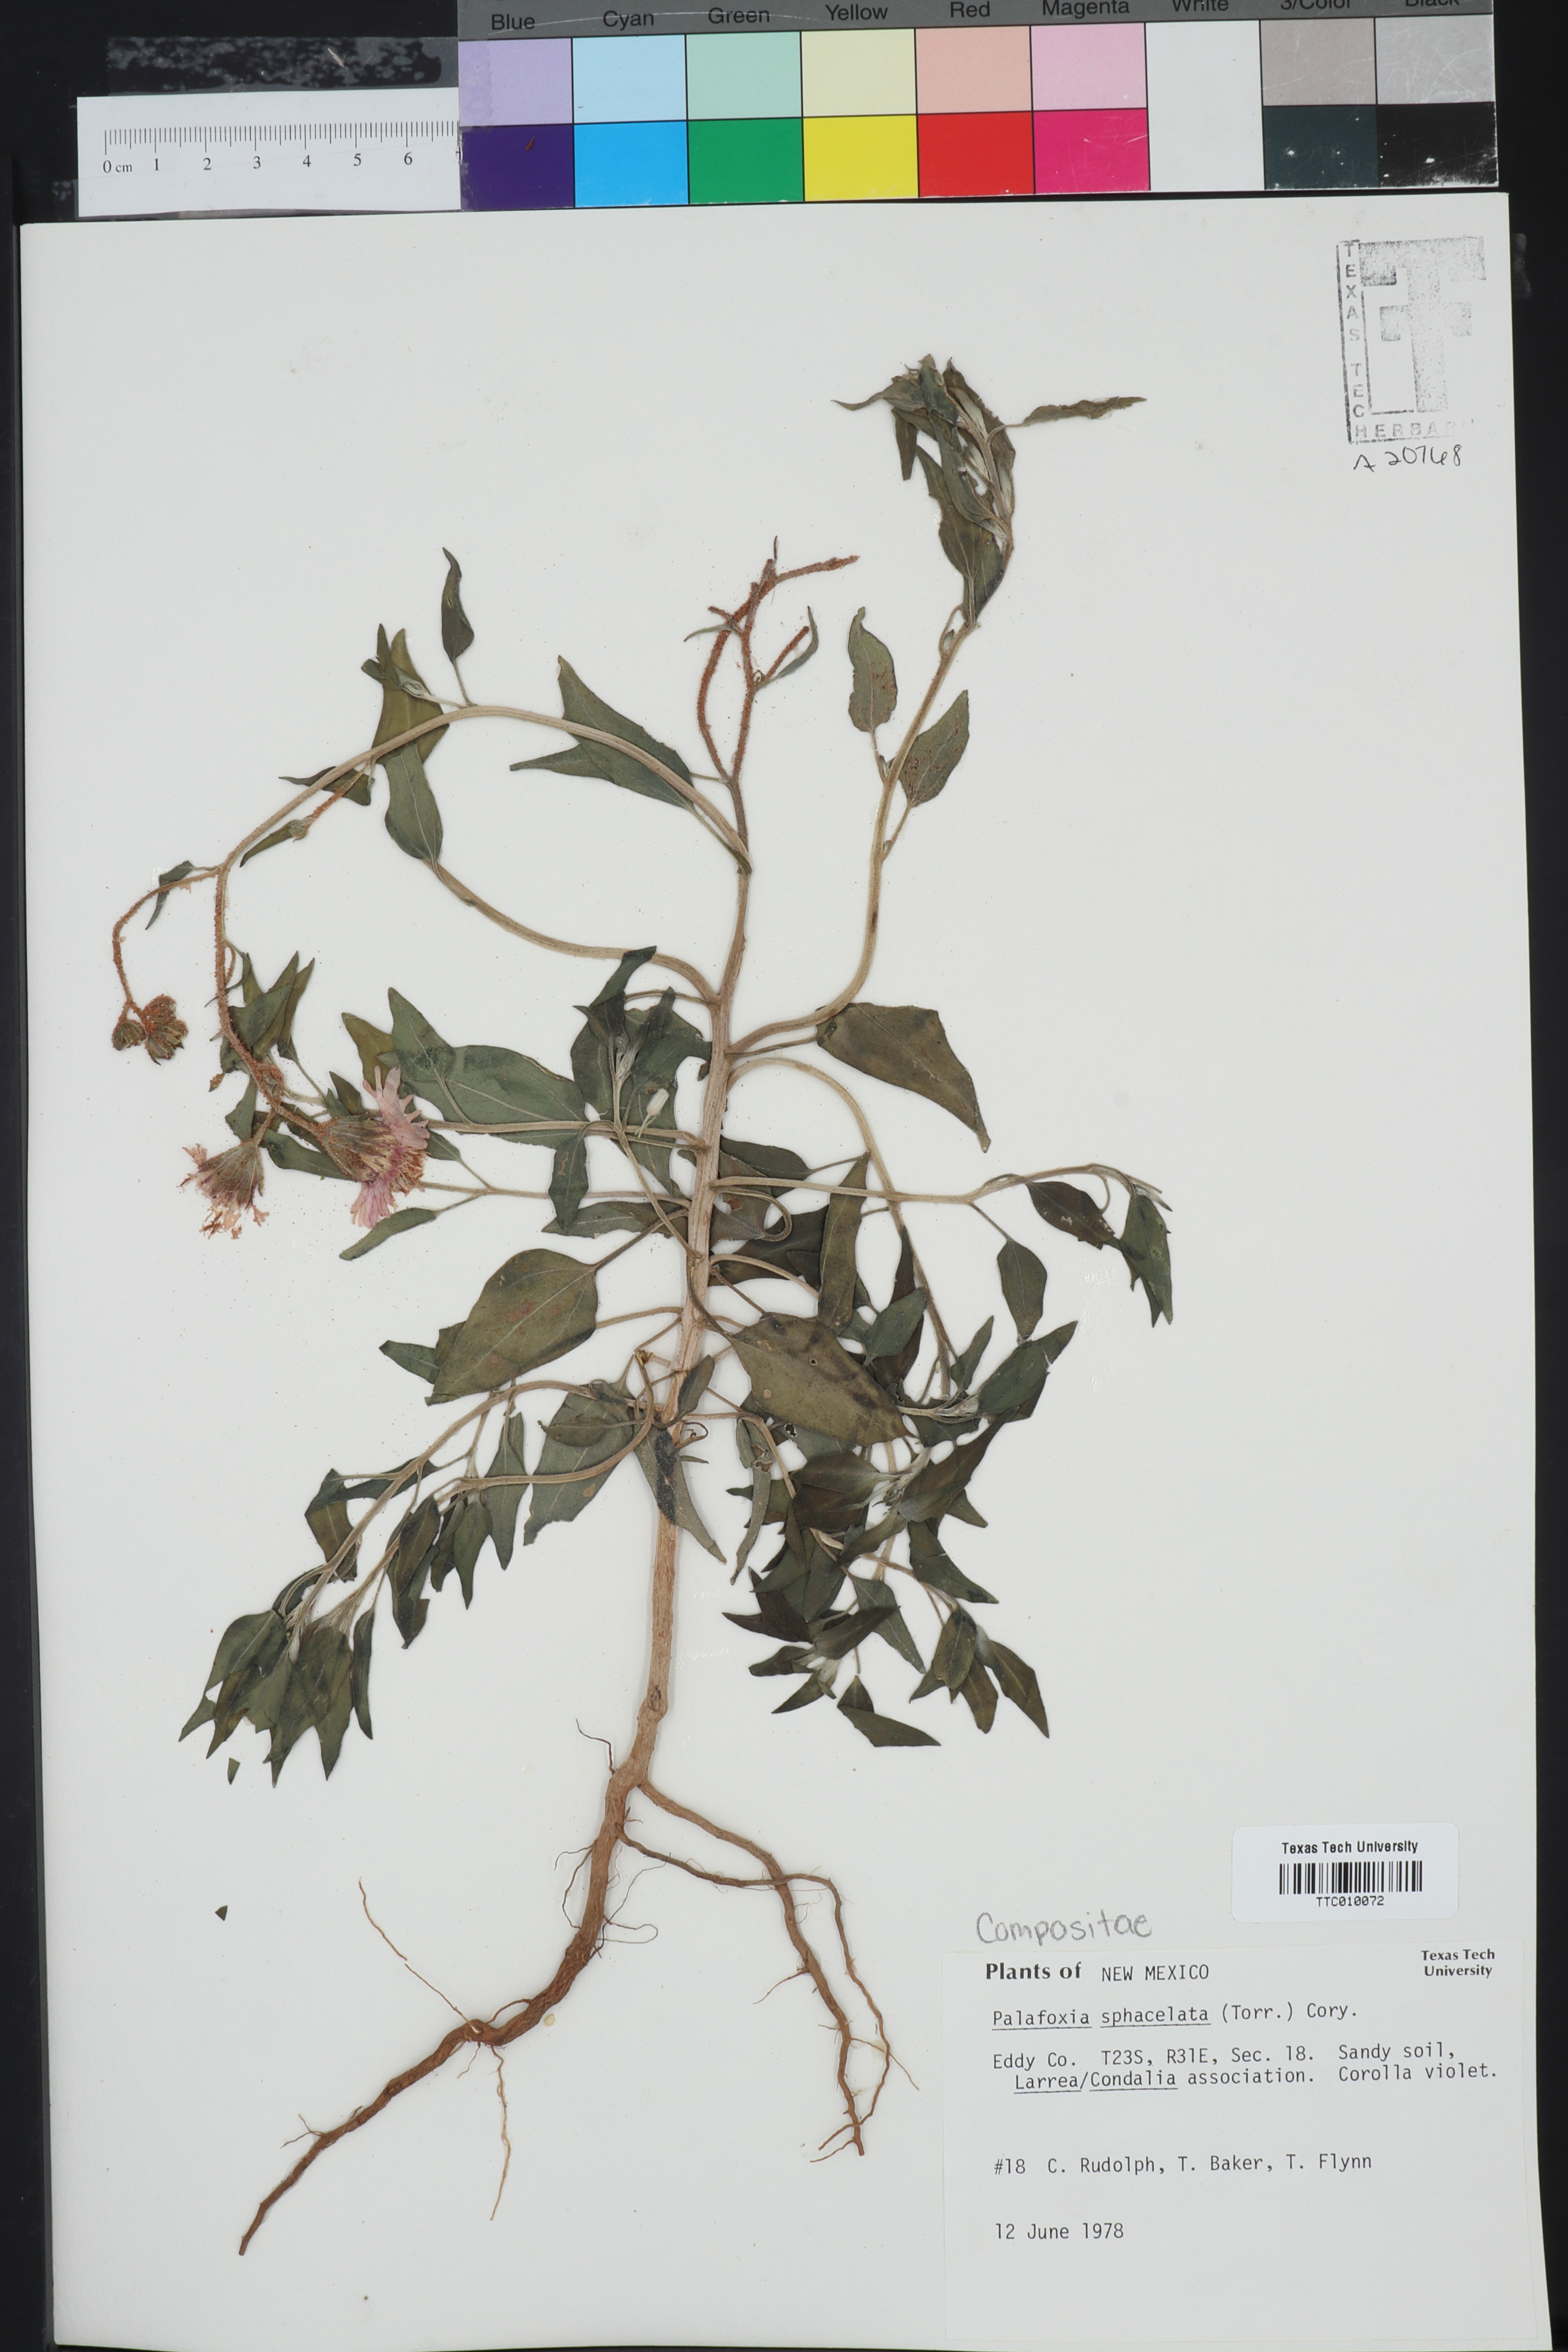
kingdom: Plantae
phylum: Tracheophyta
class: Magnoliopsida
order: Asterales
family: Asteraceae
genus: Palafoxia
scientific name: Palafoxia sphacelata
